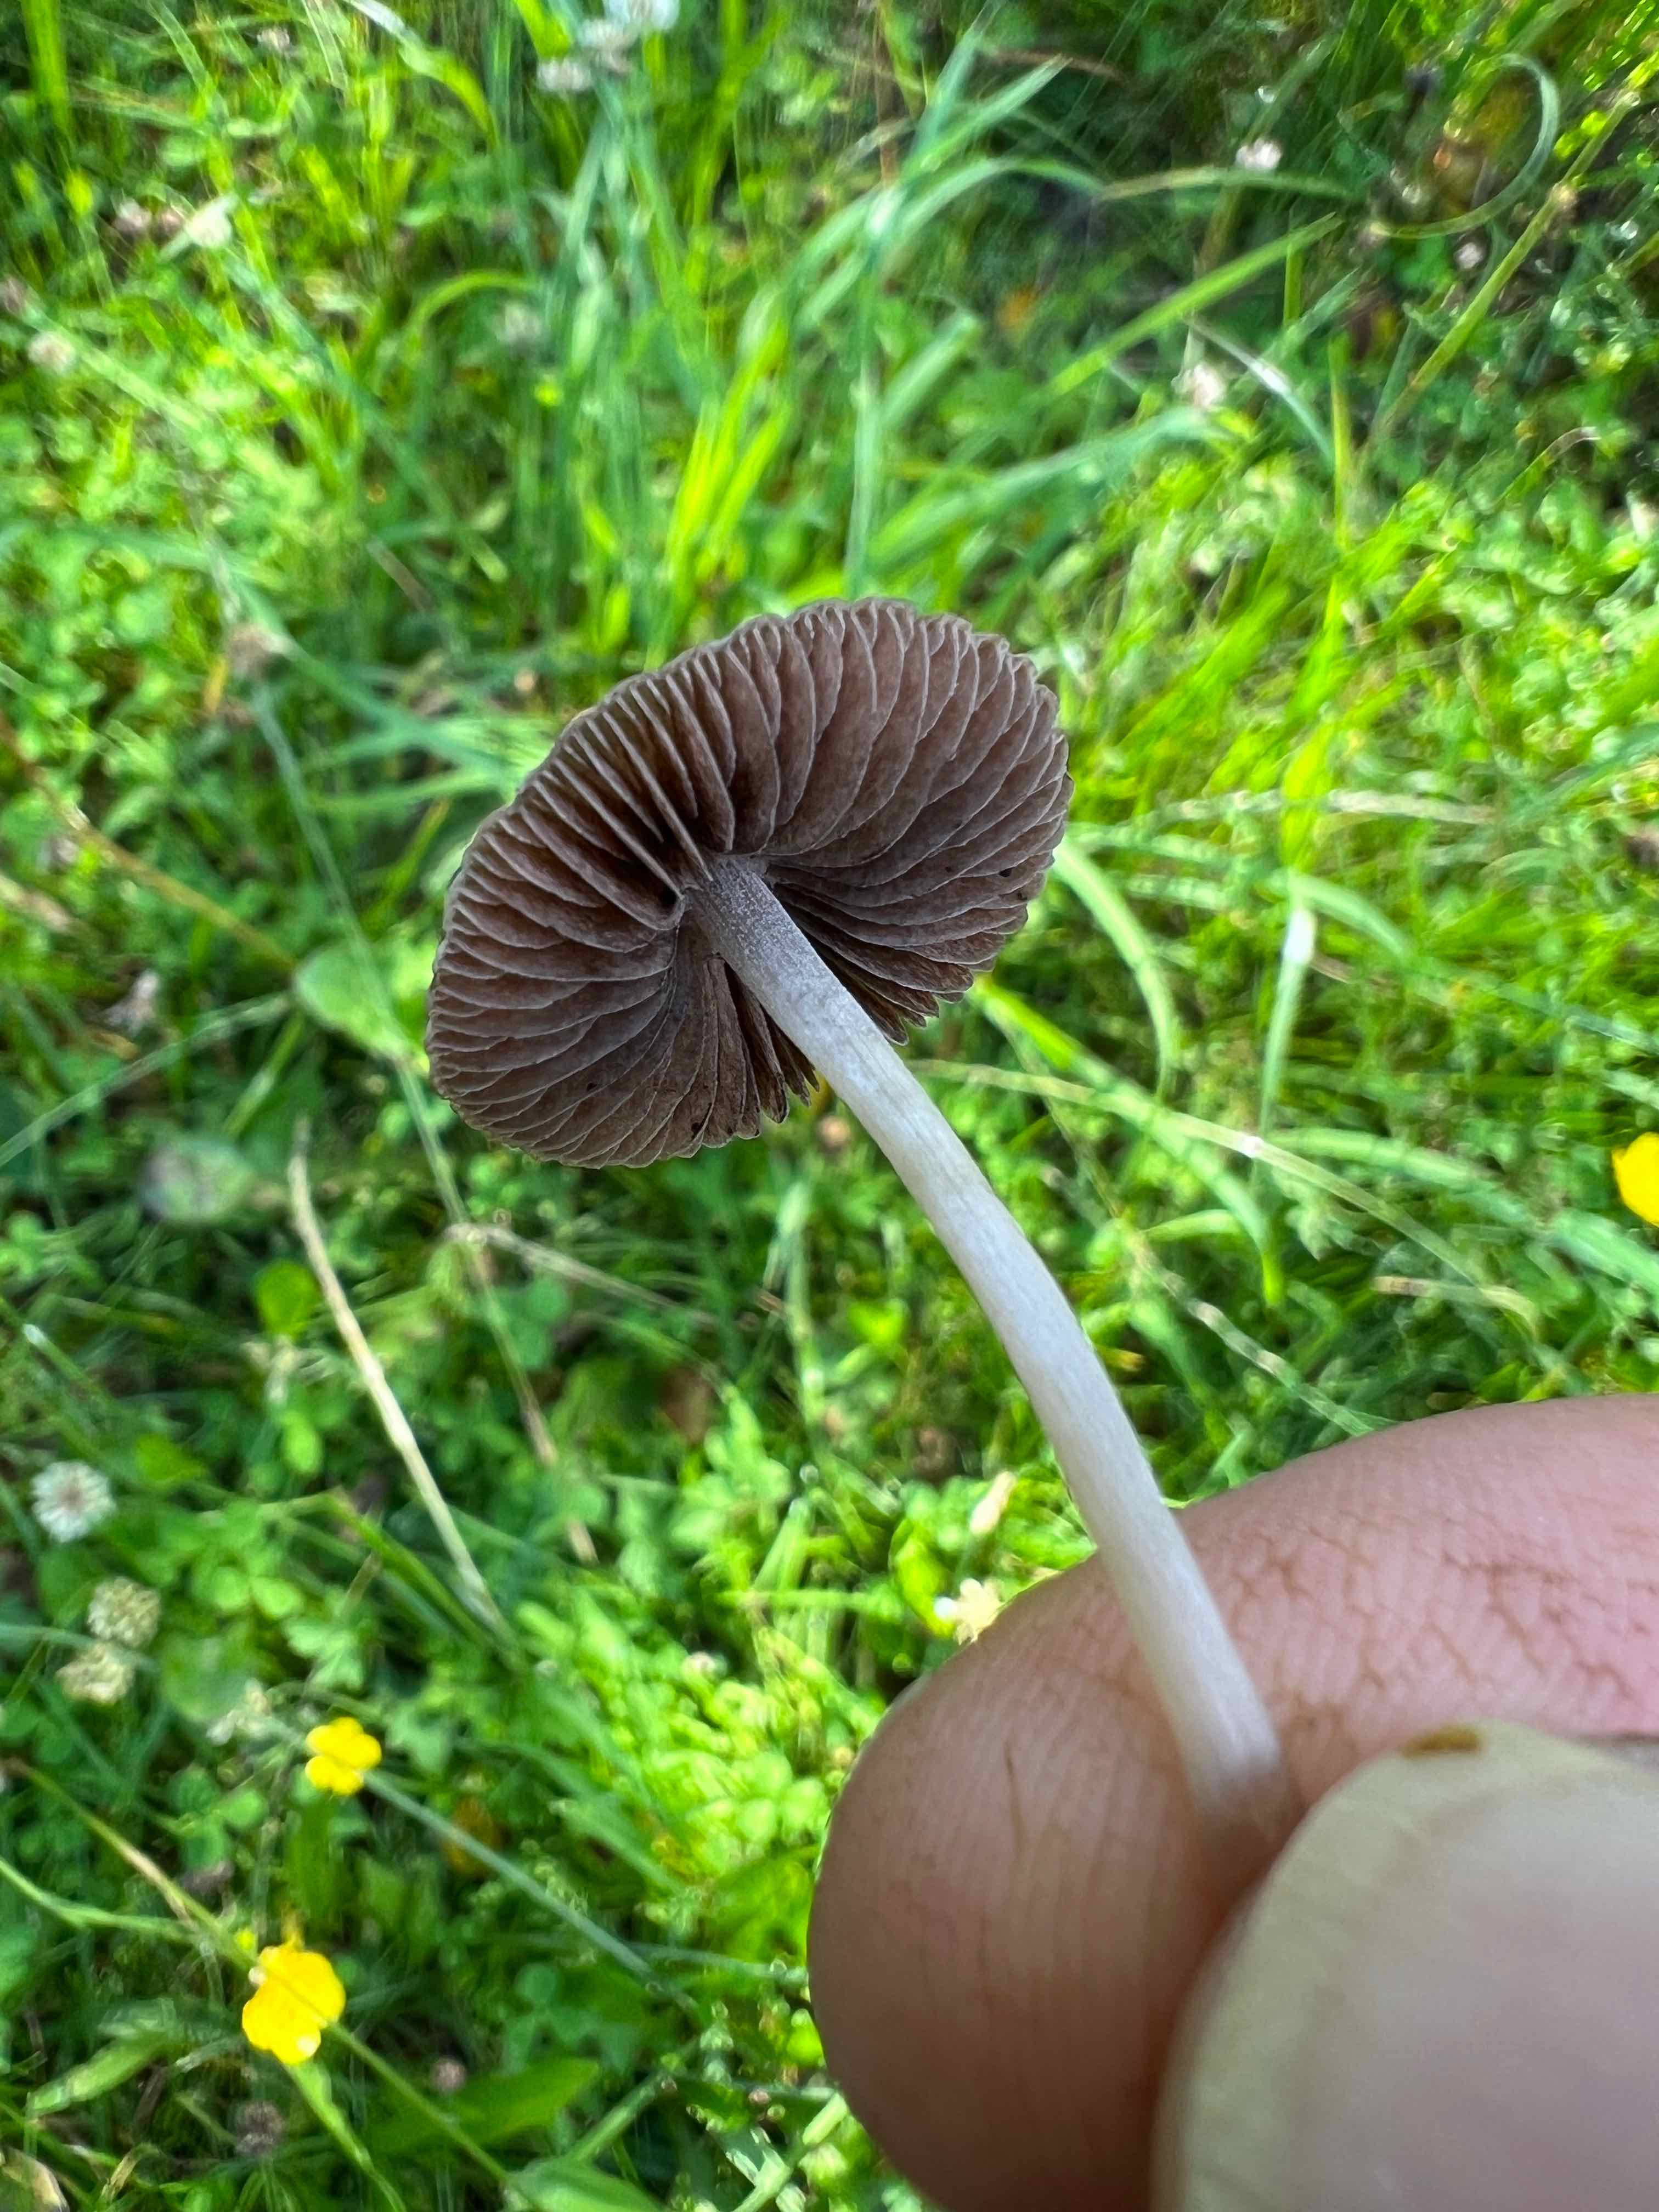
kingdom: Fungi
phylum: Basidiomycota
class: Agaricomycetes
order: Agaricales
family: Bolbitiaceae
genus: Panaeolina
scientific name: Panaeolina foenisecii
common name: høslætsvamp
